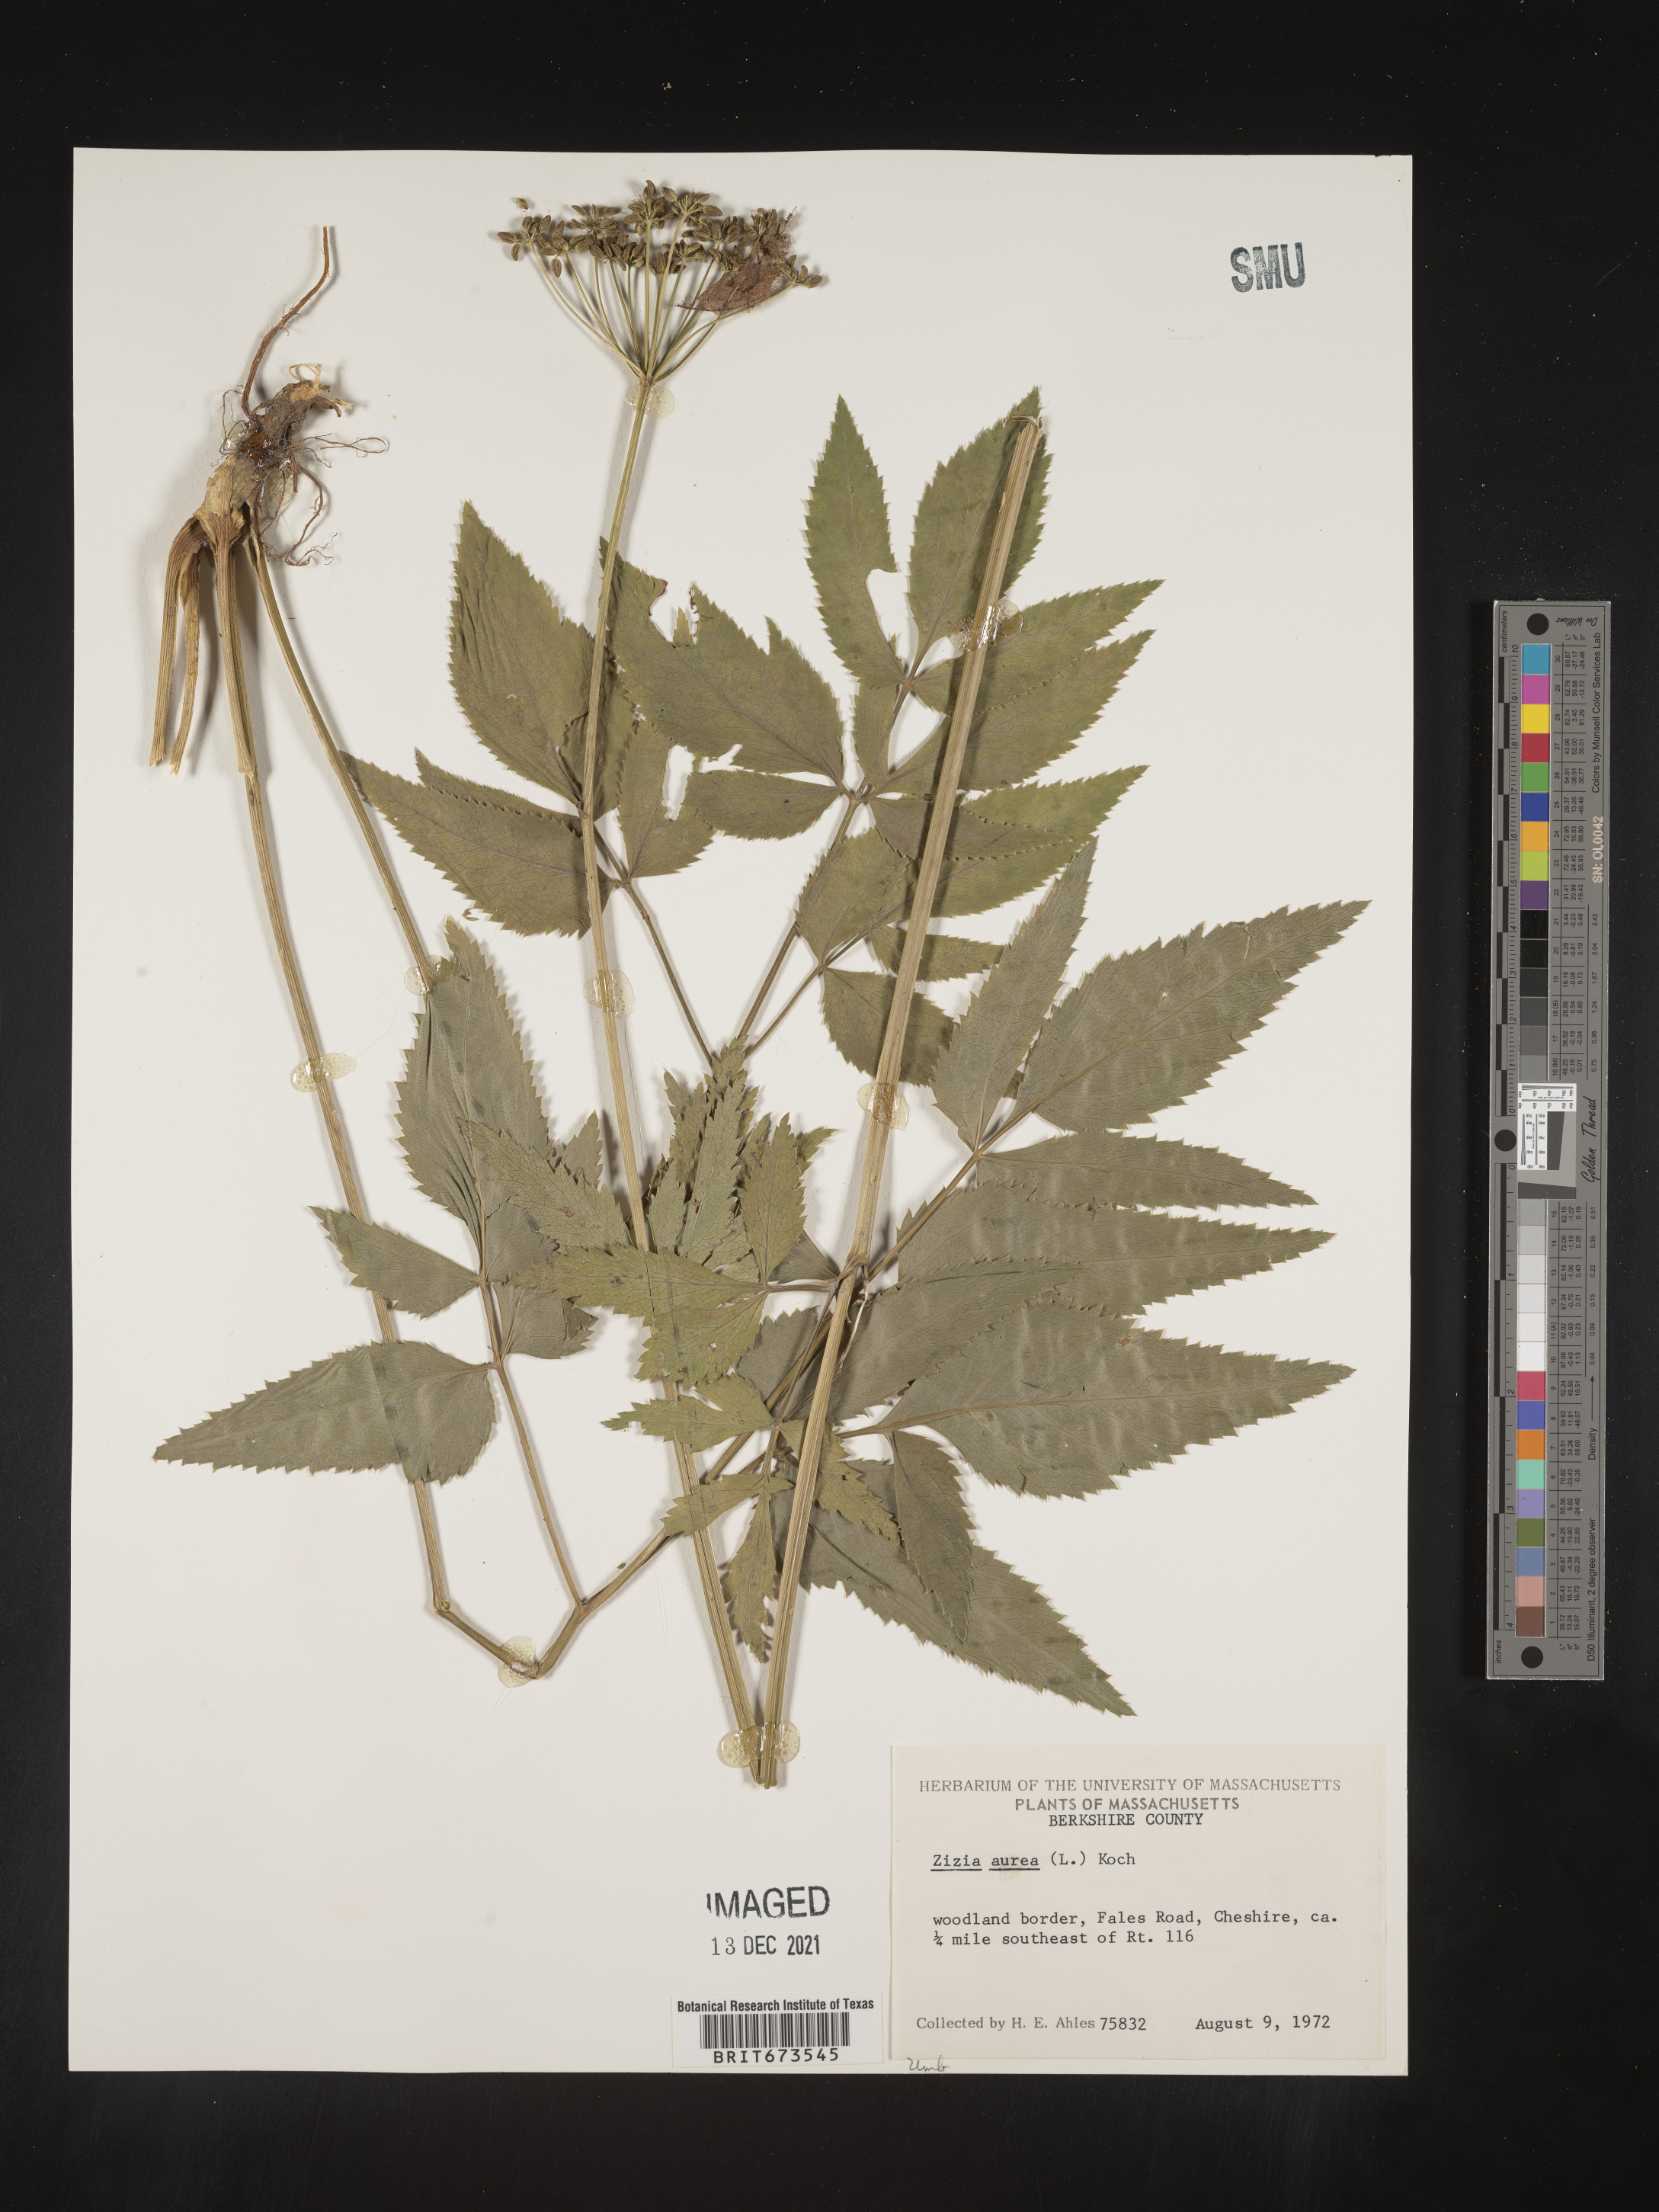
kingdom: Plantae
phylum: Tracheophyta
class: Magnoliopsida
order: Apiales
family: Apiaceae
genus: Zizia
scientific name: Zizia aurea
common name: Golden alexanders
